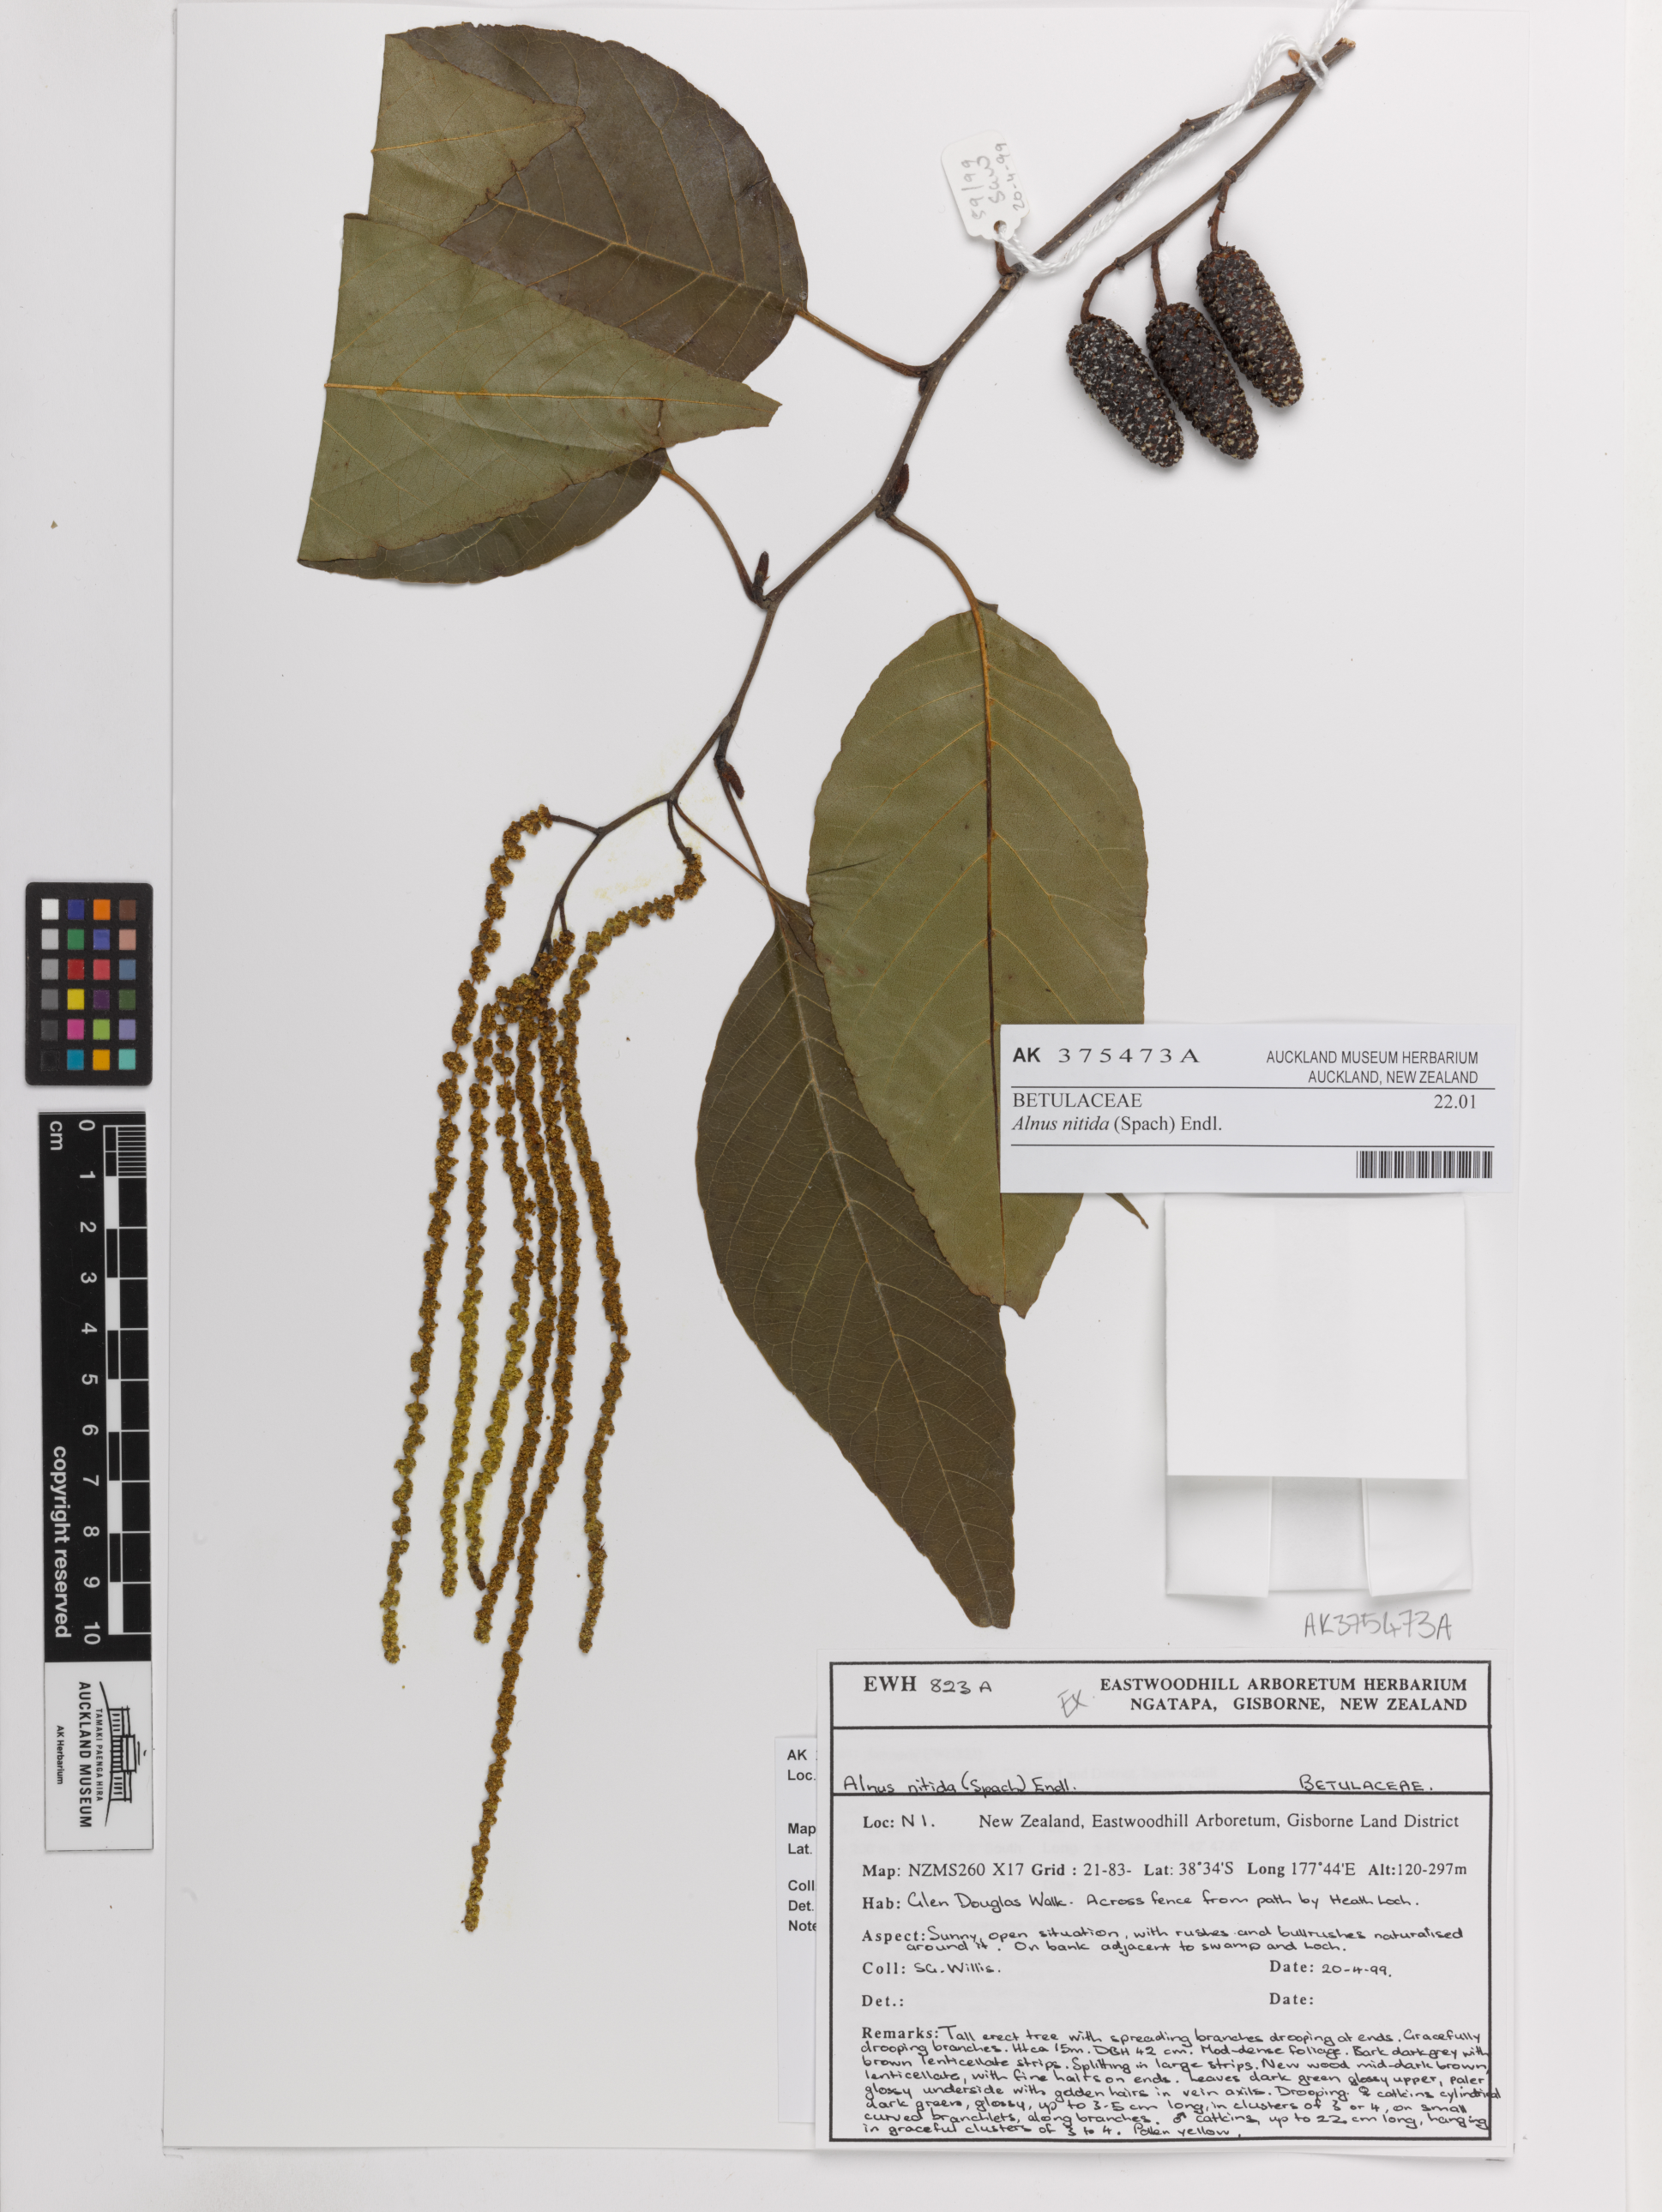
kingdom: Plantae
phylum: Tracheophyta
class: Magnoliopsida
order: Fagales
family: Betulaceae
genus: Alnus
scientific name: Alnus nitida
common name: West himalayan alder
